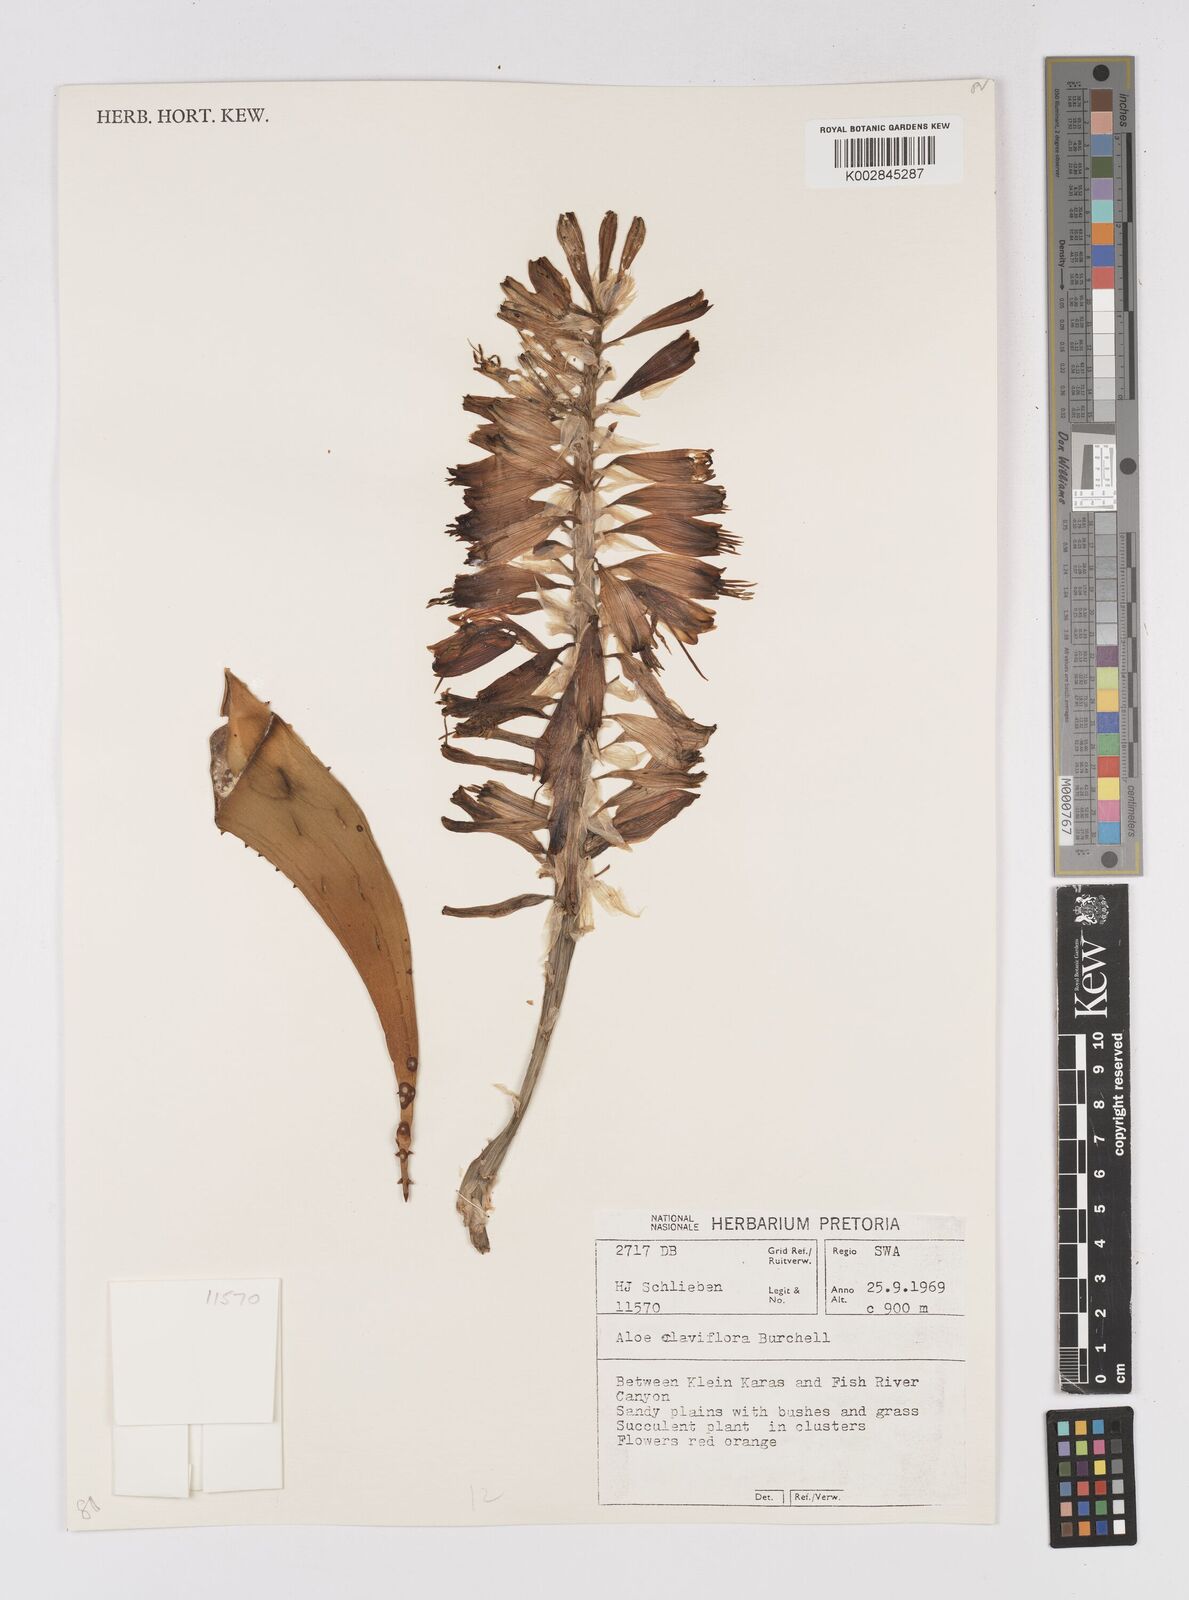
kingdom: Plantae
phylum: Tracheophyta
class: Liliopsida
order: Asparagales
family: Asphodelaceae
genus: Aloe
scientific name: Aloe claviflora
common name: Cannon aloe
